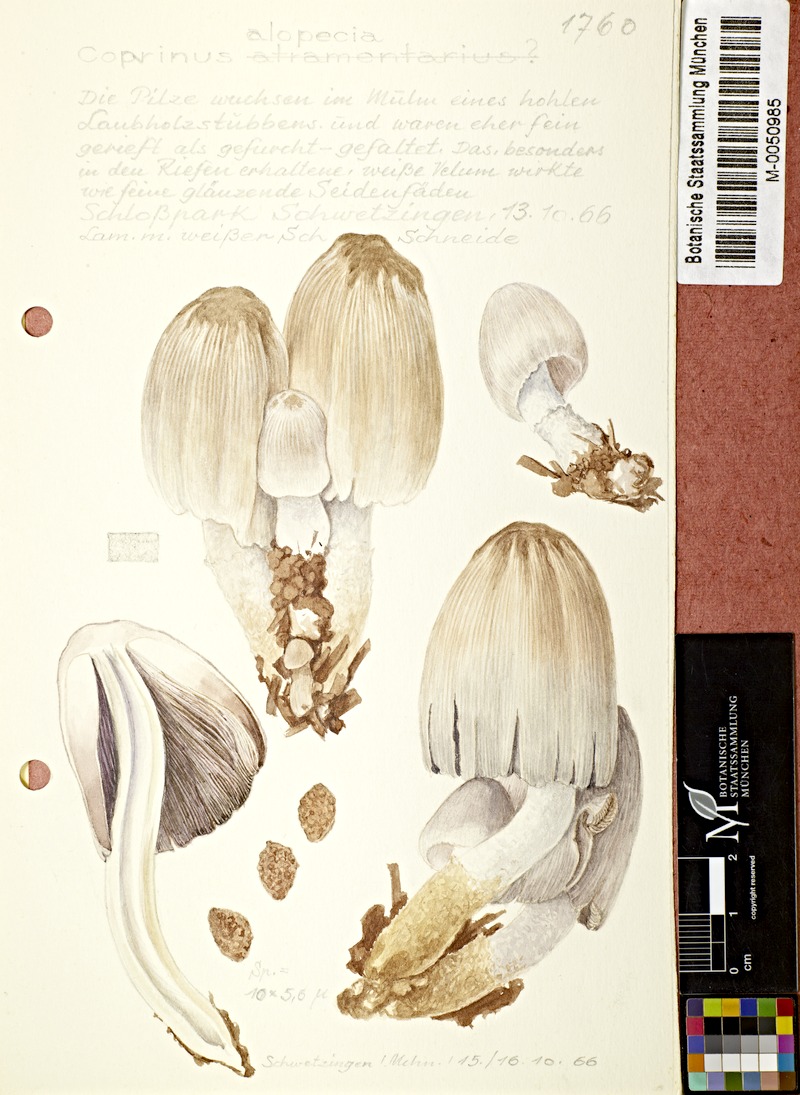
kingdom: Fungi
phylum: Basidiomycota
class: Agaricomycetes
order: Agaricales
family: Psathyrellaceae
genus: Coprinopsis
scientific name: Coprinopsis alopecia
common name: Distinguished inkcap
